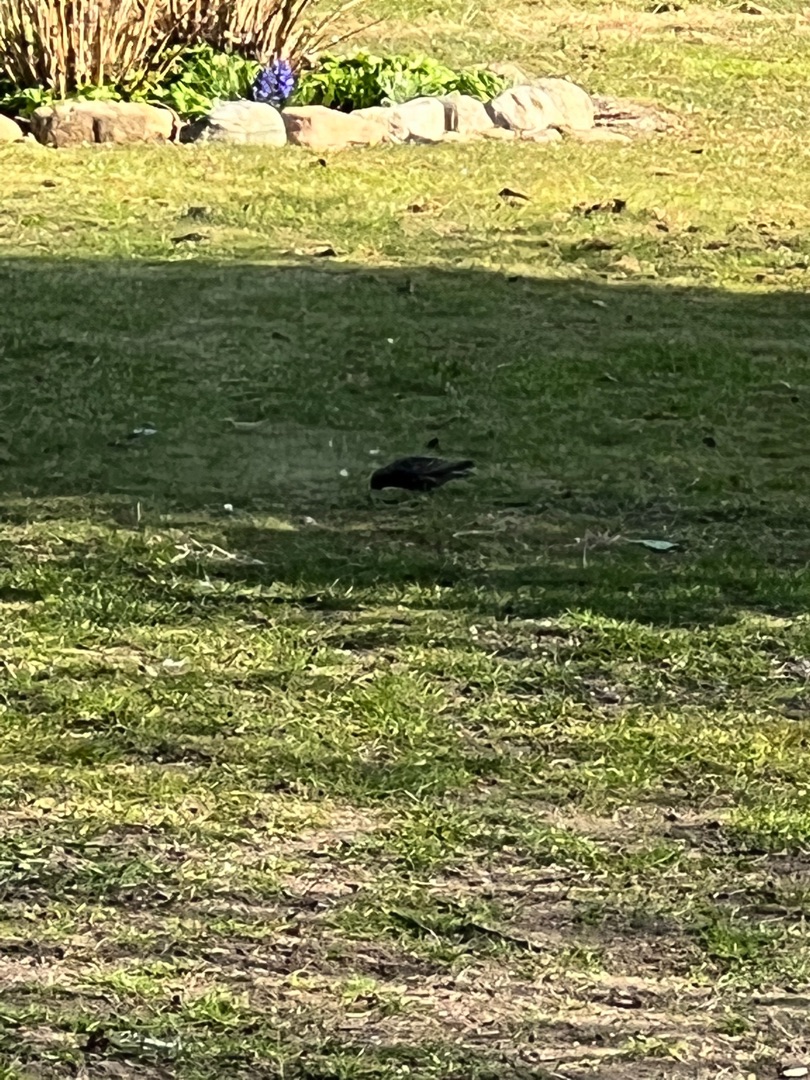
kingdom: Animalia
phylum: Chordata
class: Aves
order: Passeriformes
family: Sturnidae
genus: Sturnus
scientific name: Sturnus vulgaris
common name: Stær
